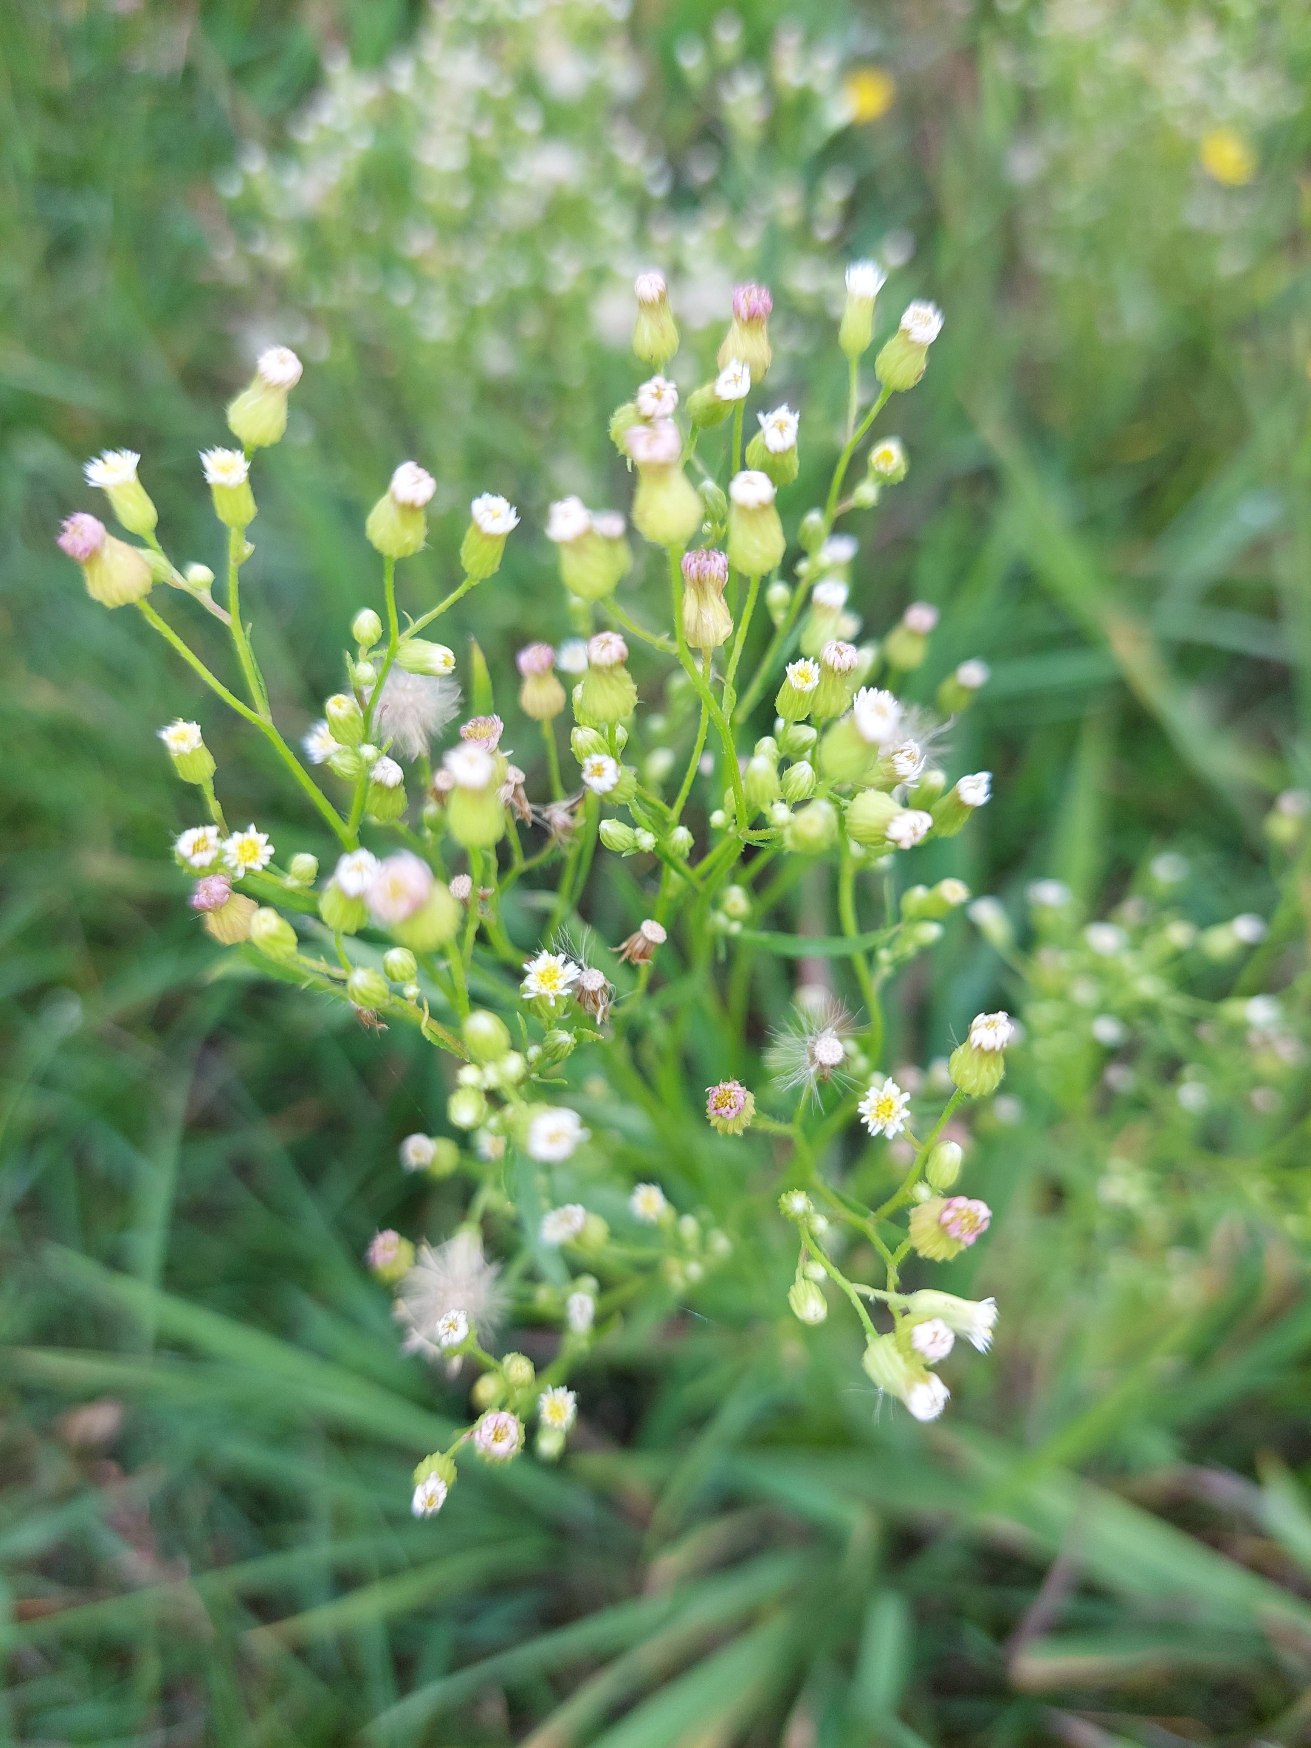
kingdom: Plantae
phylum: Tracheophyta
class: Magnoliopsida
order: Asterales
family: Asteraceae
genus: Erigeron
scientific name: Erigeron canadensis
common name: Kanadisk bakkestjerne
